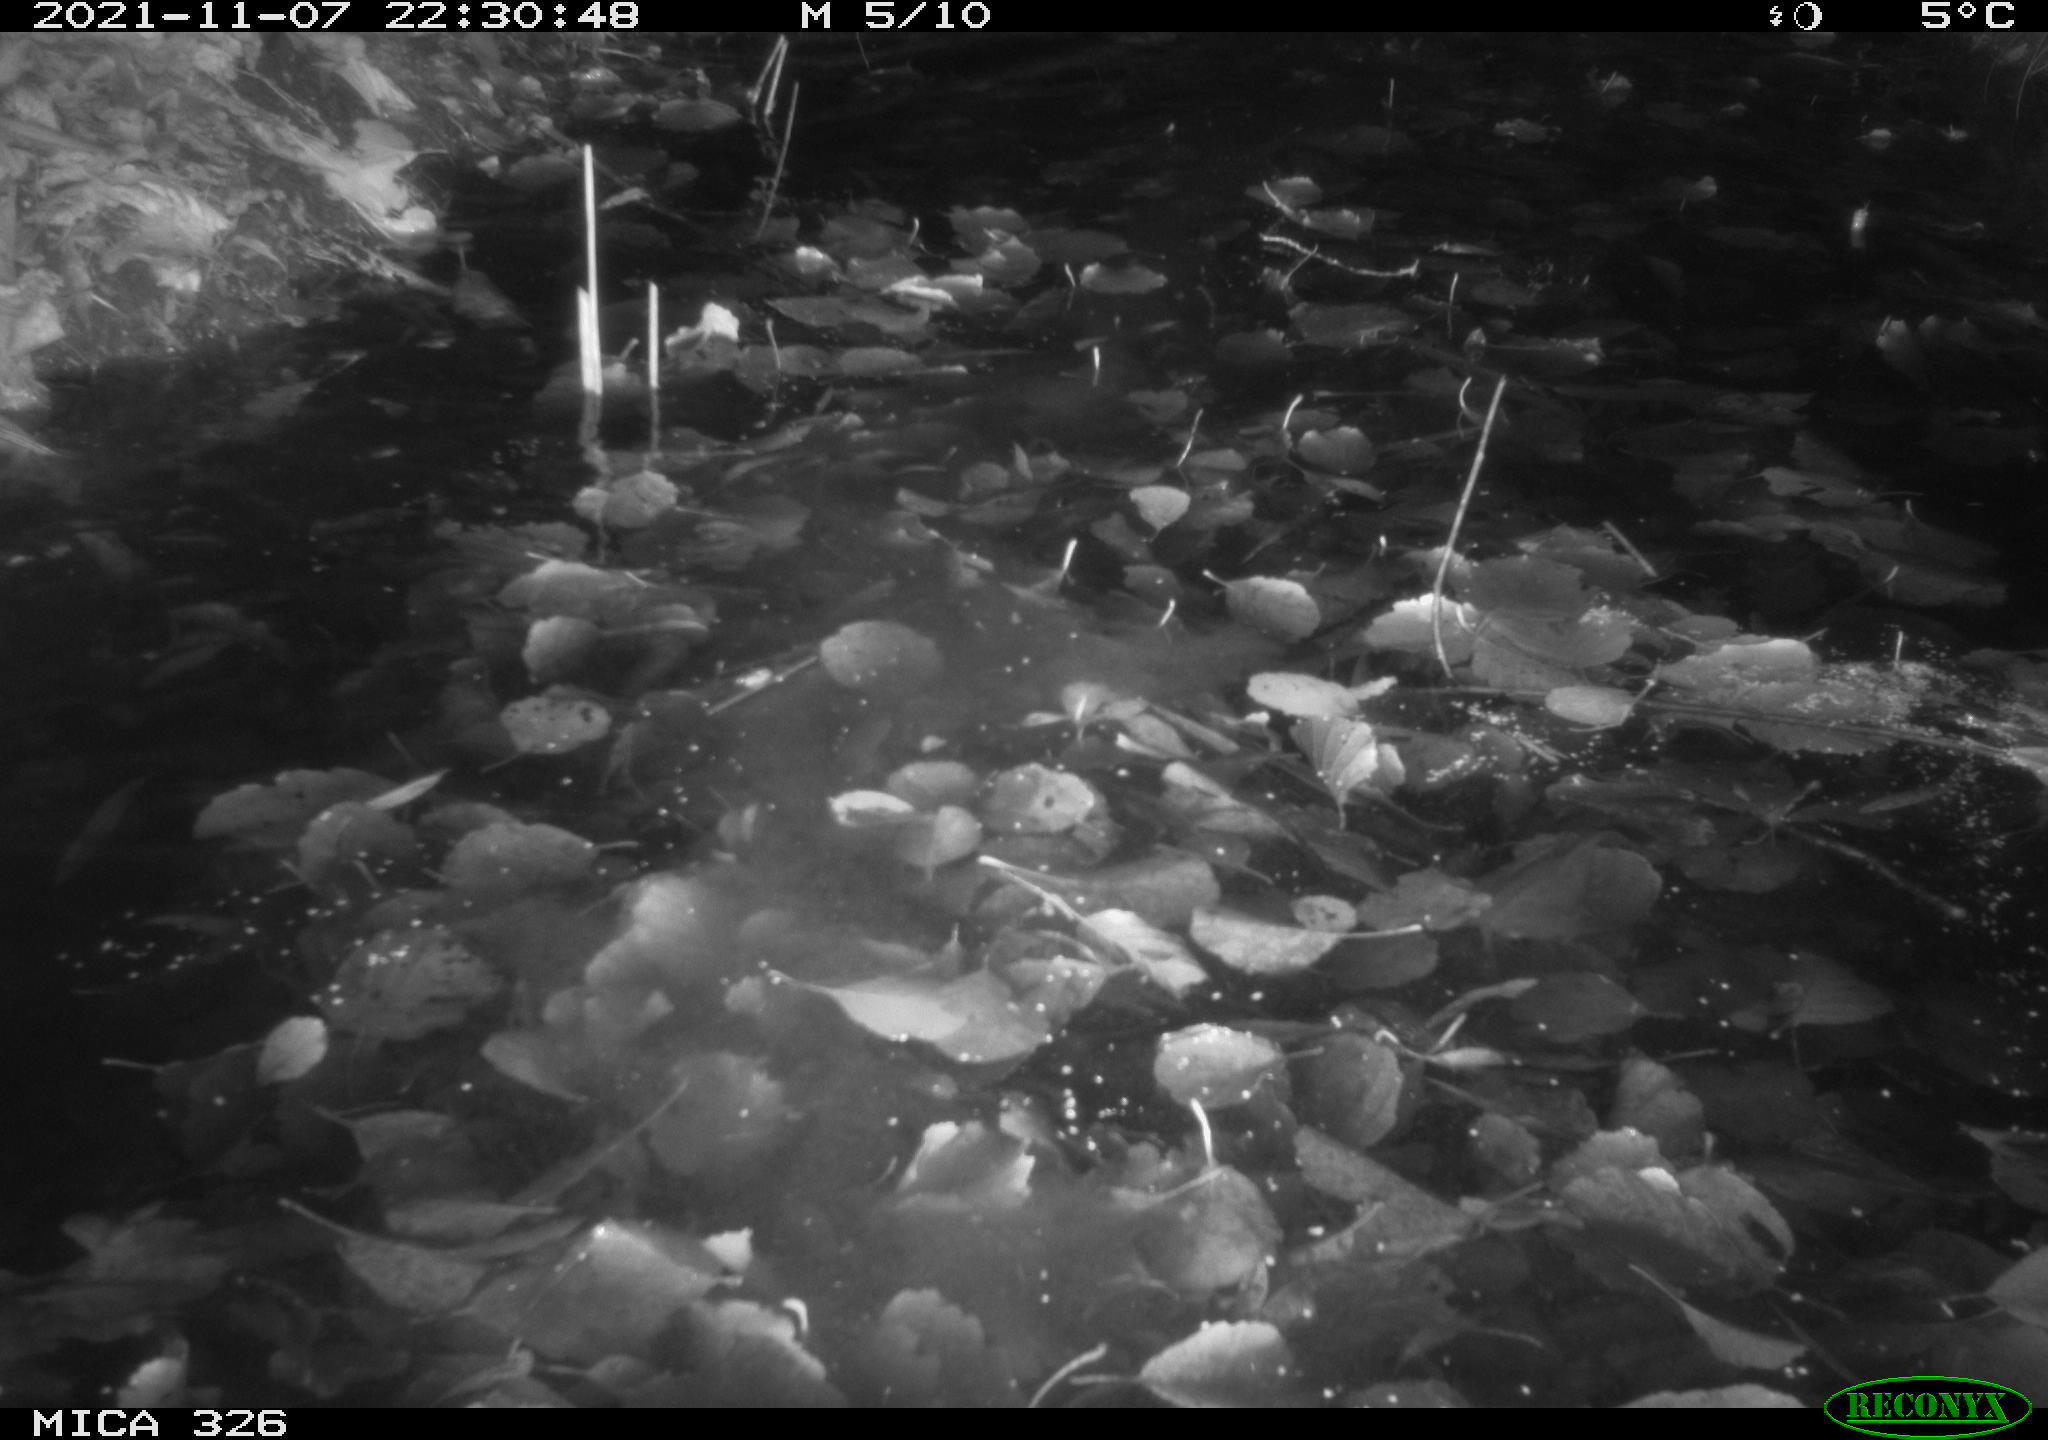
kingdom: Animalia
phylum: Chordata
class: Mammalia
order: Rodentia
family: Myocastoridae
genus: Myocastor
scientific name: Myocastor coypus
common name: Coypu
